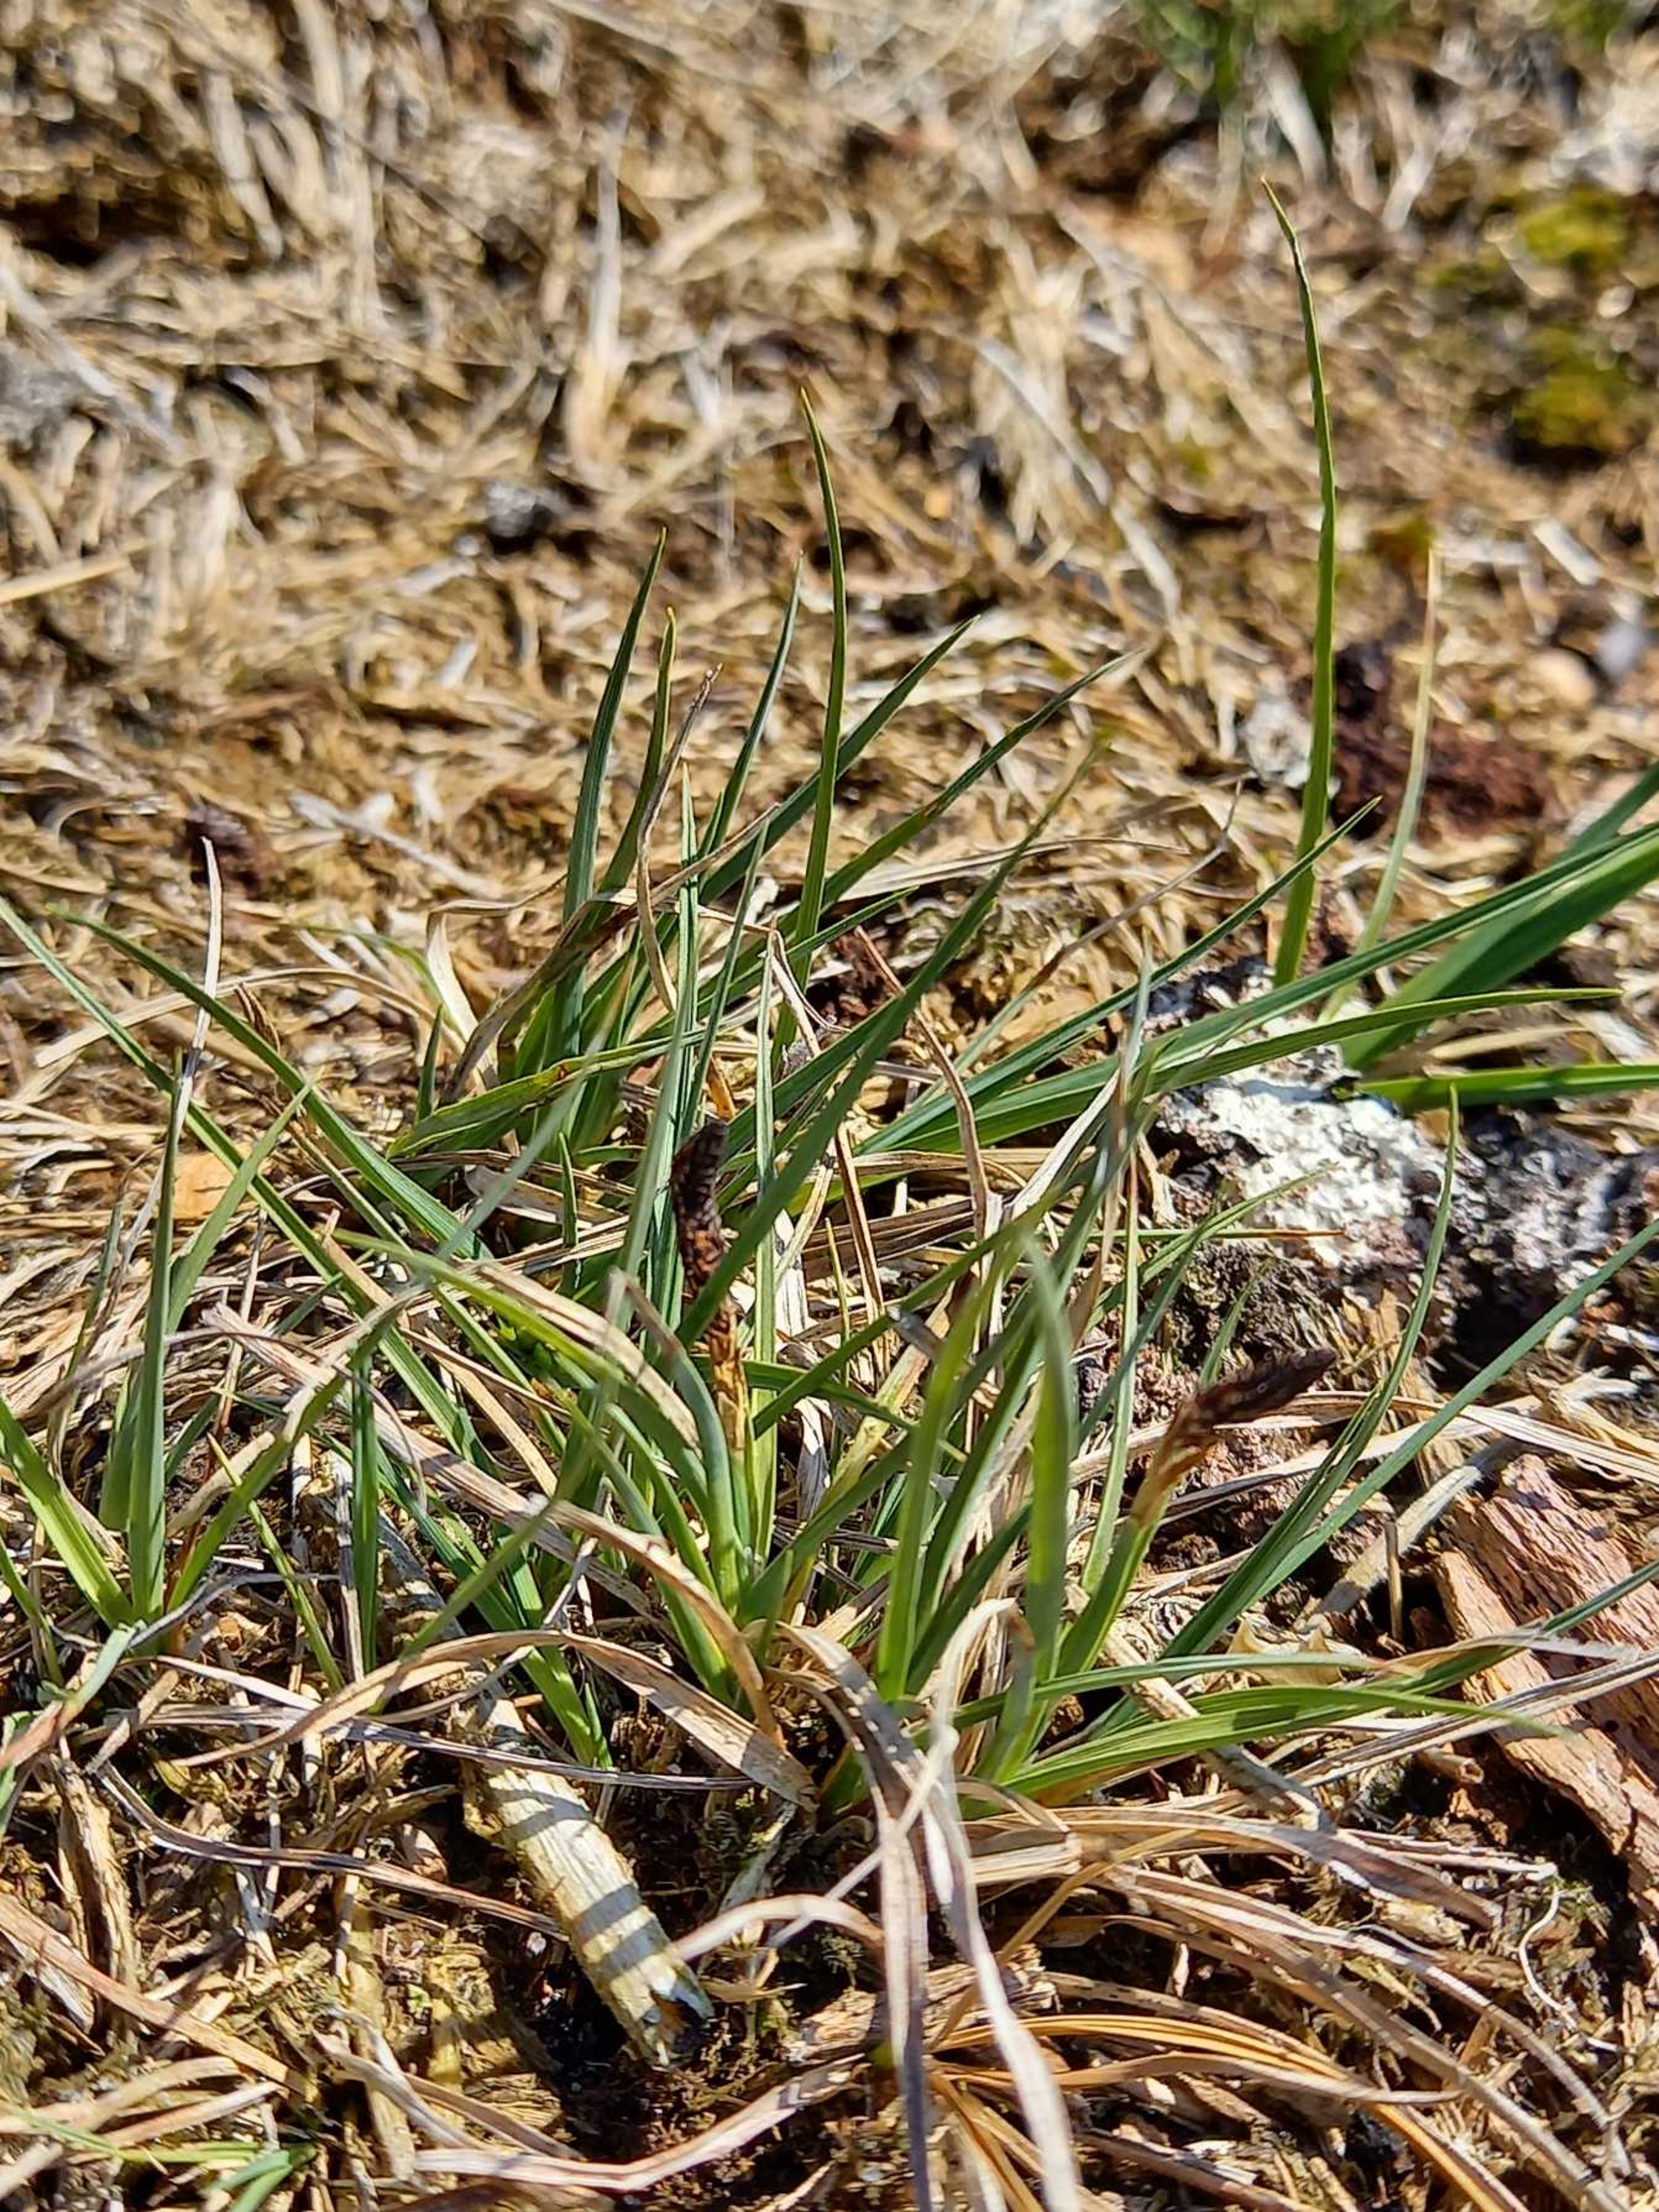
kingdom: Plantae
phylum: Tracheophyta
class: Liliopsida
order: Poales
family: Cyperaceae
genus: Carex
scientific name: Carex caryophyllea
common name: Vår-star
